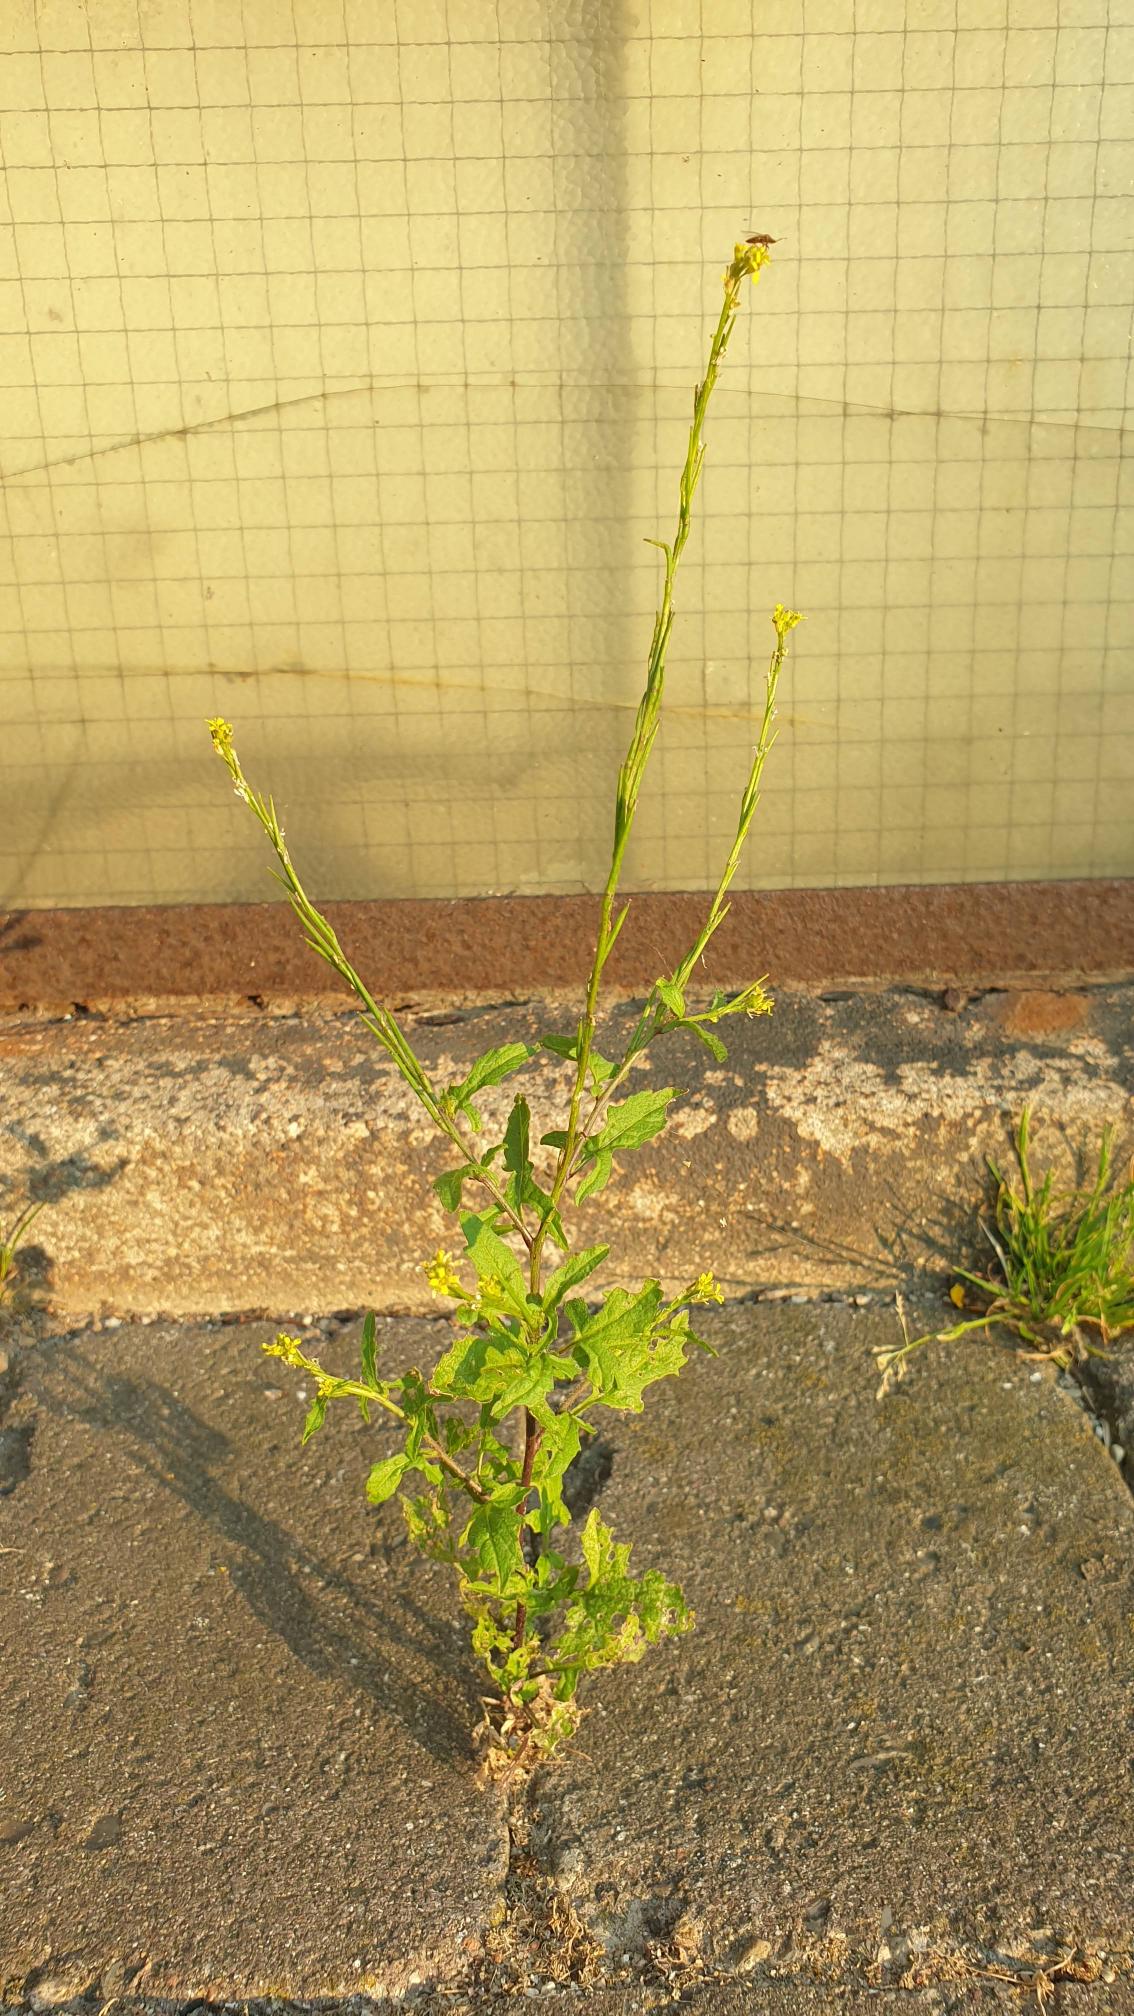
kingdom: Plantae
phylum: Tracheophyta
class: Magnoliopsida
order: Brassicales
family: Brassicaceae
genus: Sisymbrium
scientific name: Sisymbrium officinale
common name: Rank vejsennep
